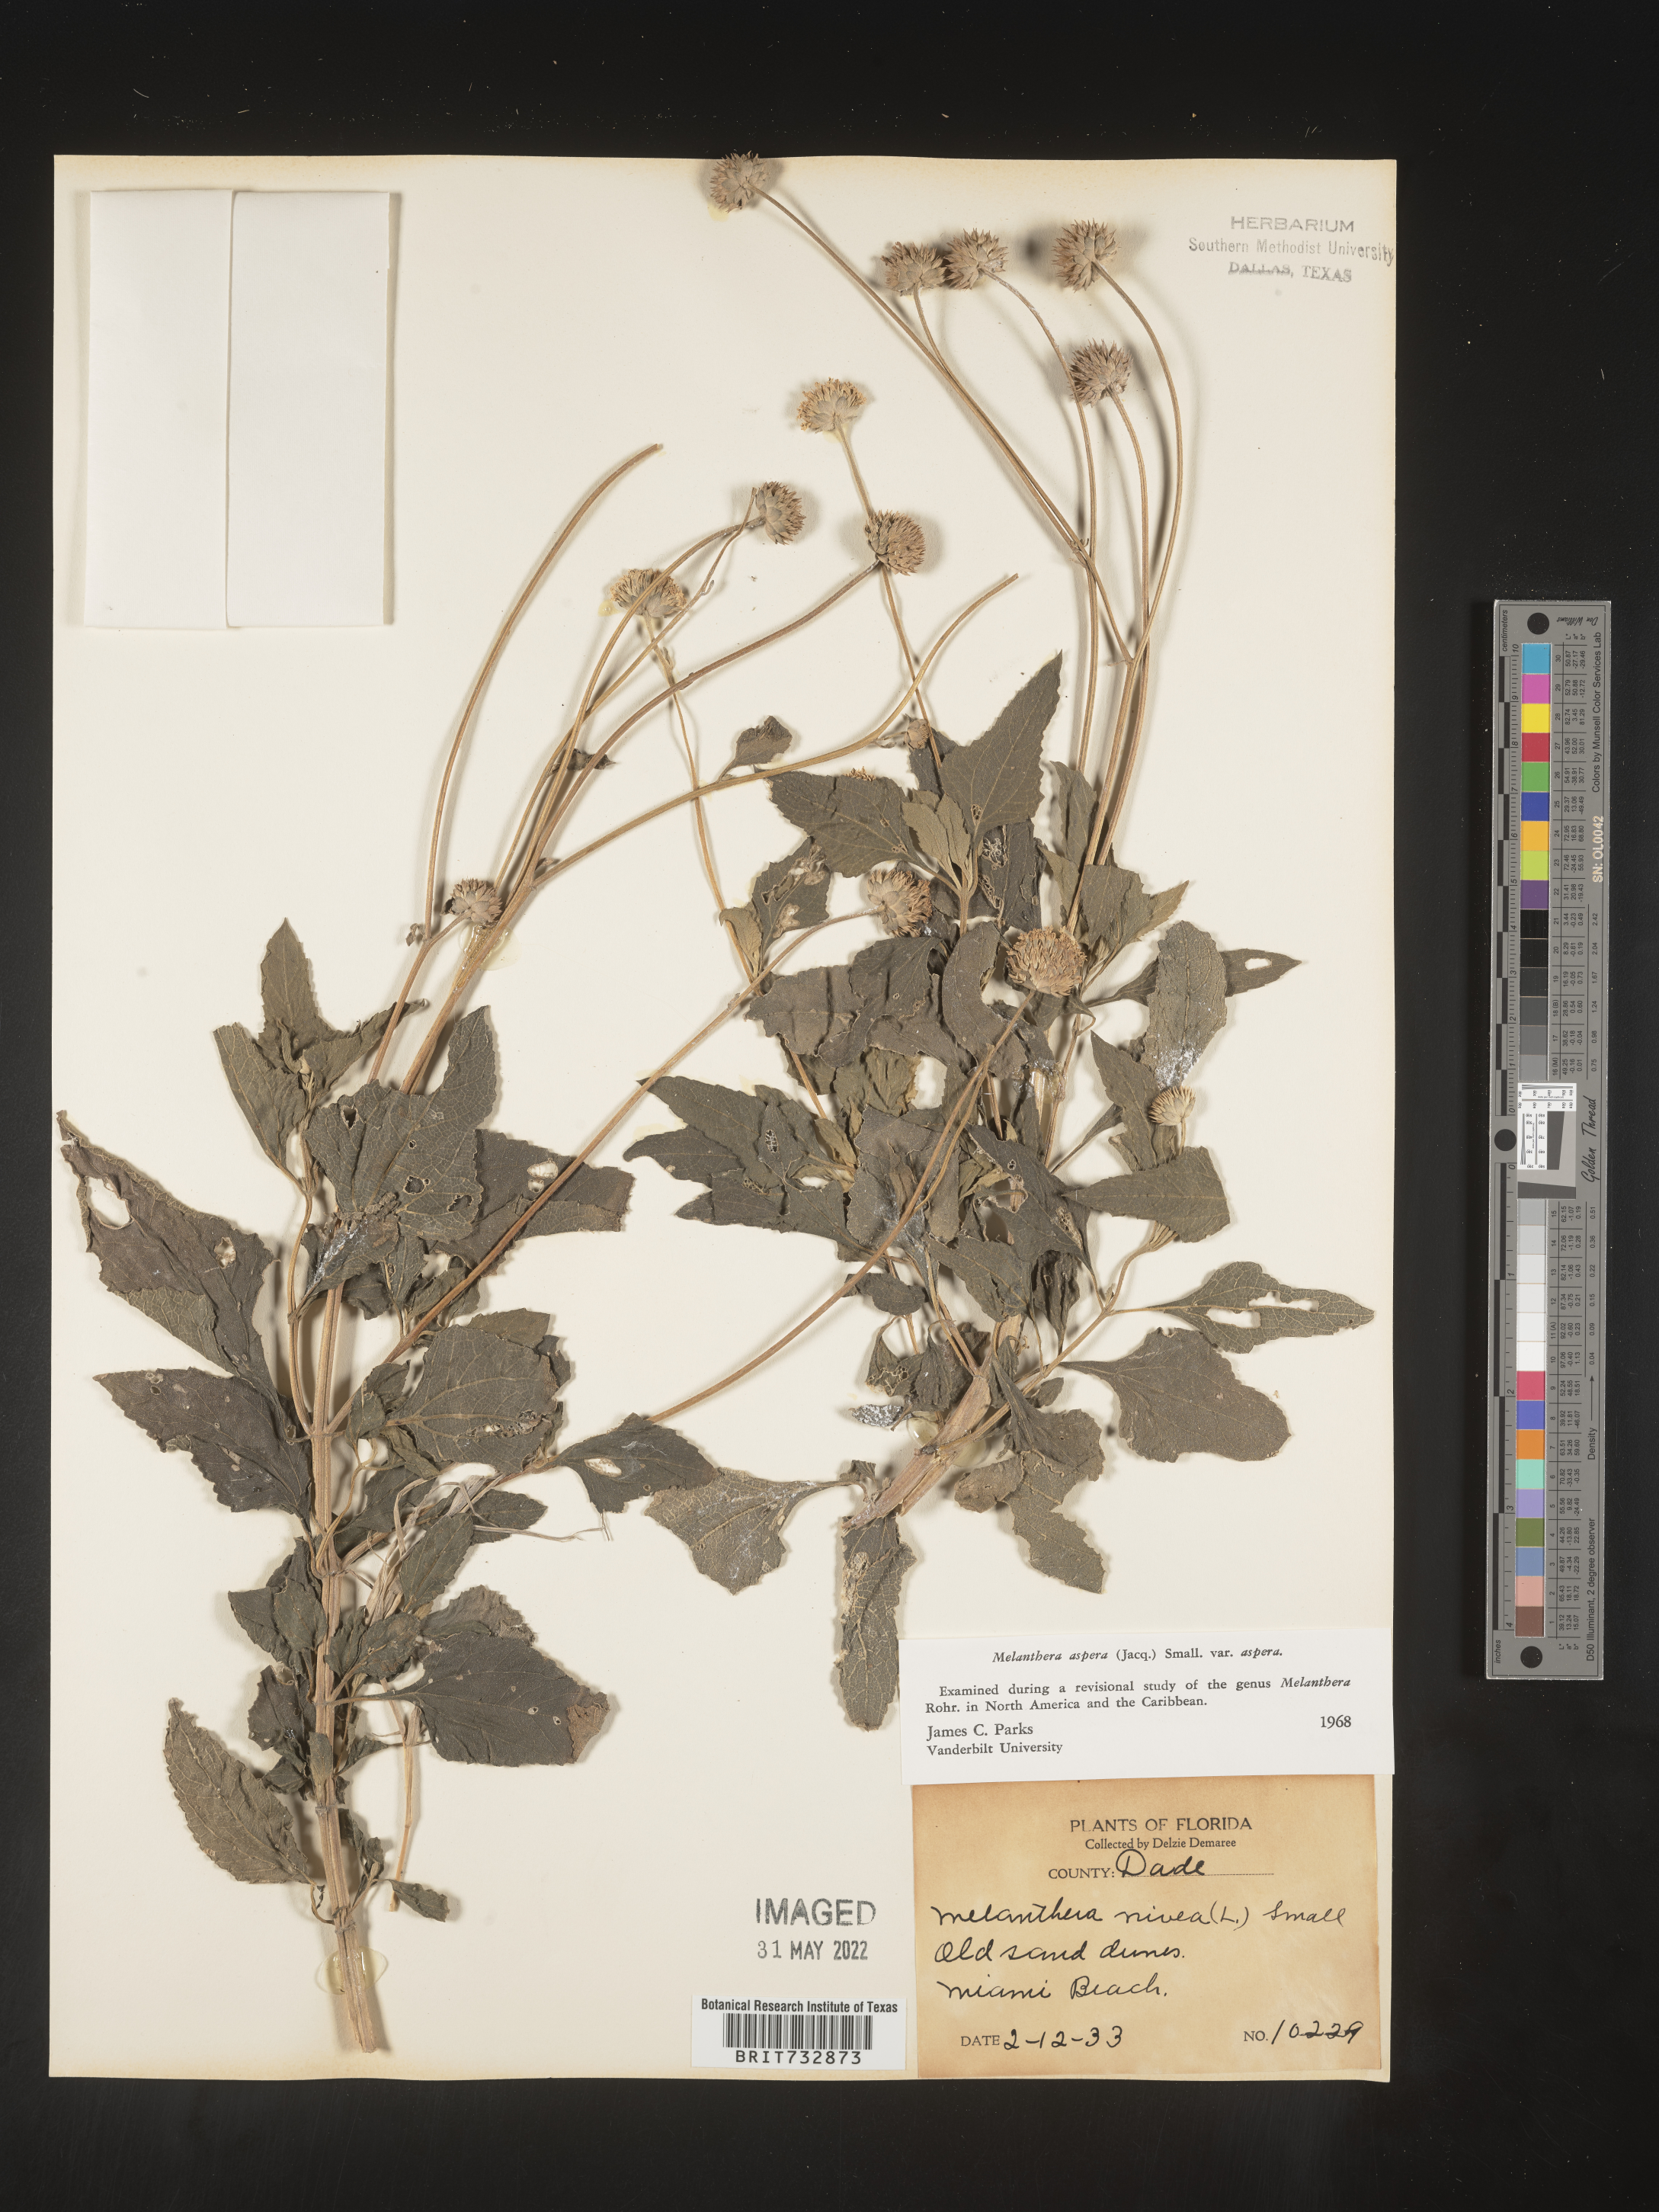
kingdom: Plantae
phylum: Tracheophyta
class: Magnoliopsida
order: Asterales
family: Asteraceae
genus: Melanthera
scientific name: Melanthera nivea
